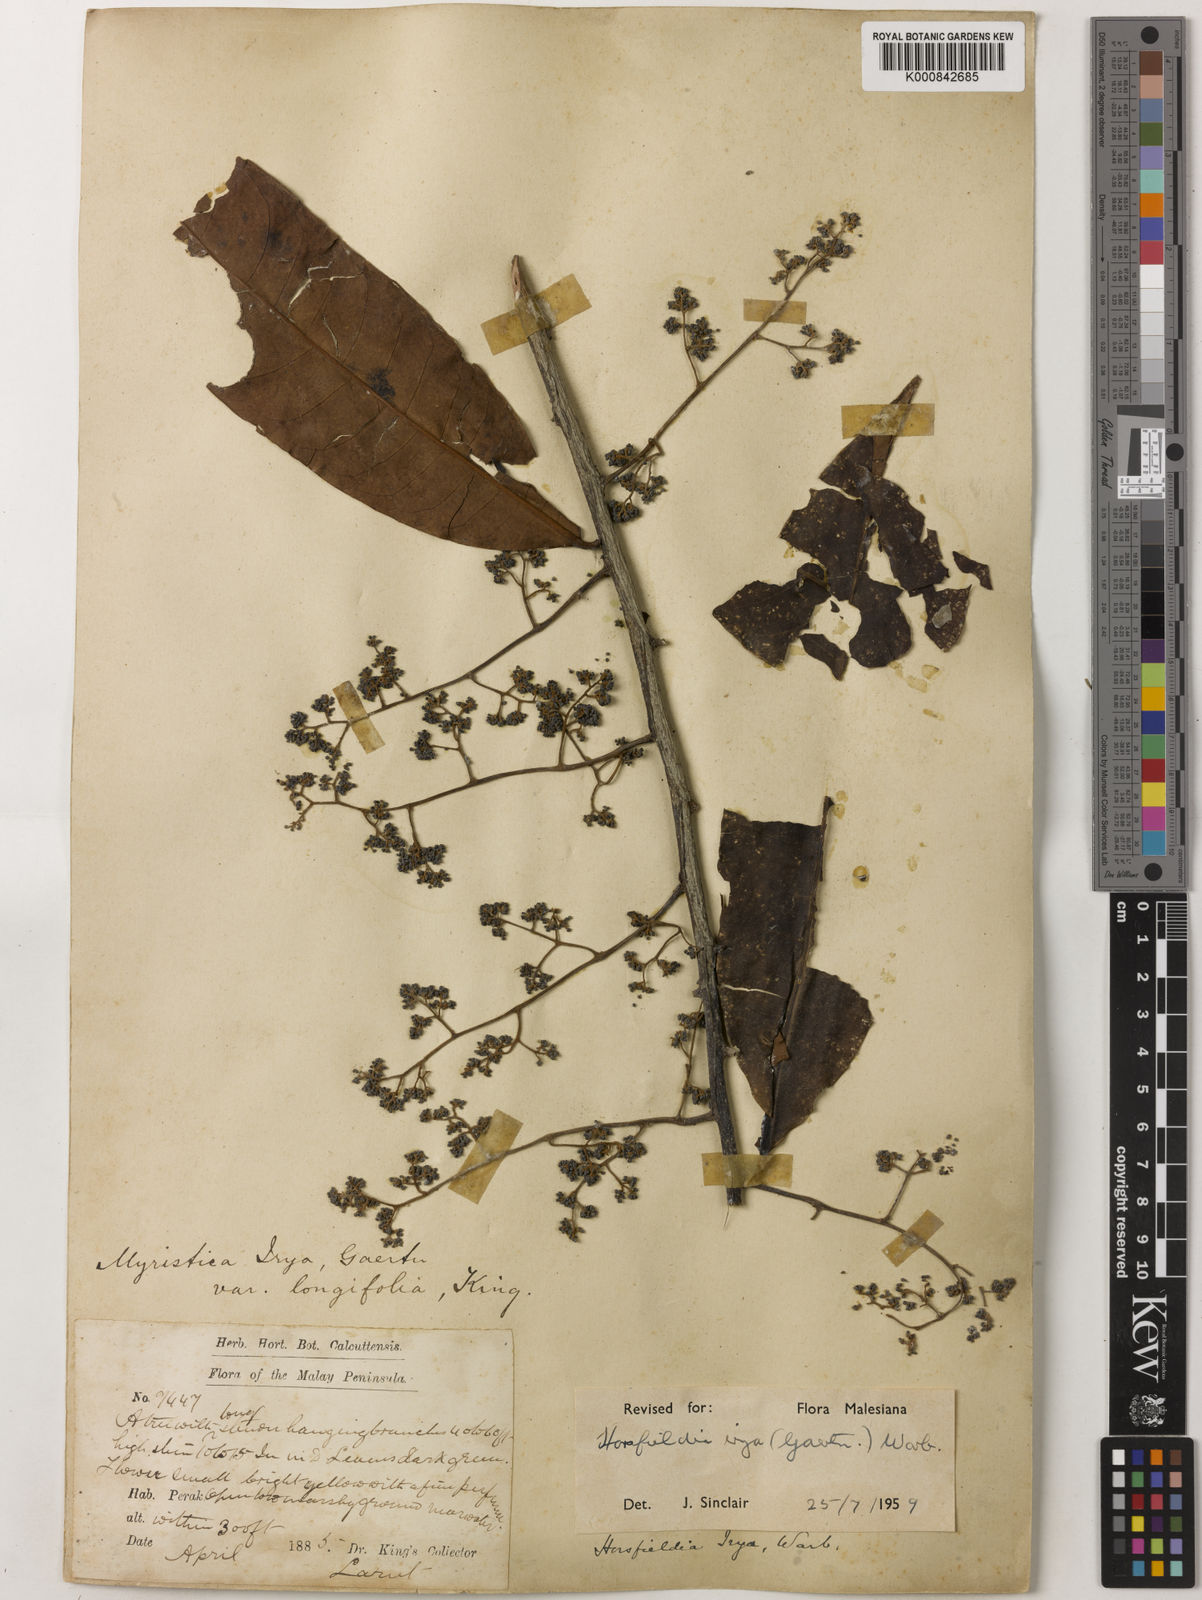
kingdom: Plantae
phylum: Tracheophyta
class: Magnoliopsida
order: Magnoliales
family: Myristicaceae
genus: Horsfieldia
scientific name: Horsfieldia irya
